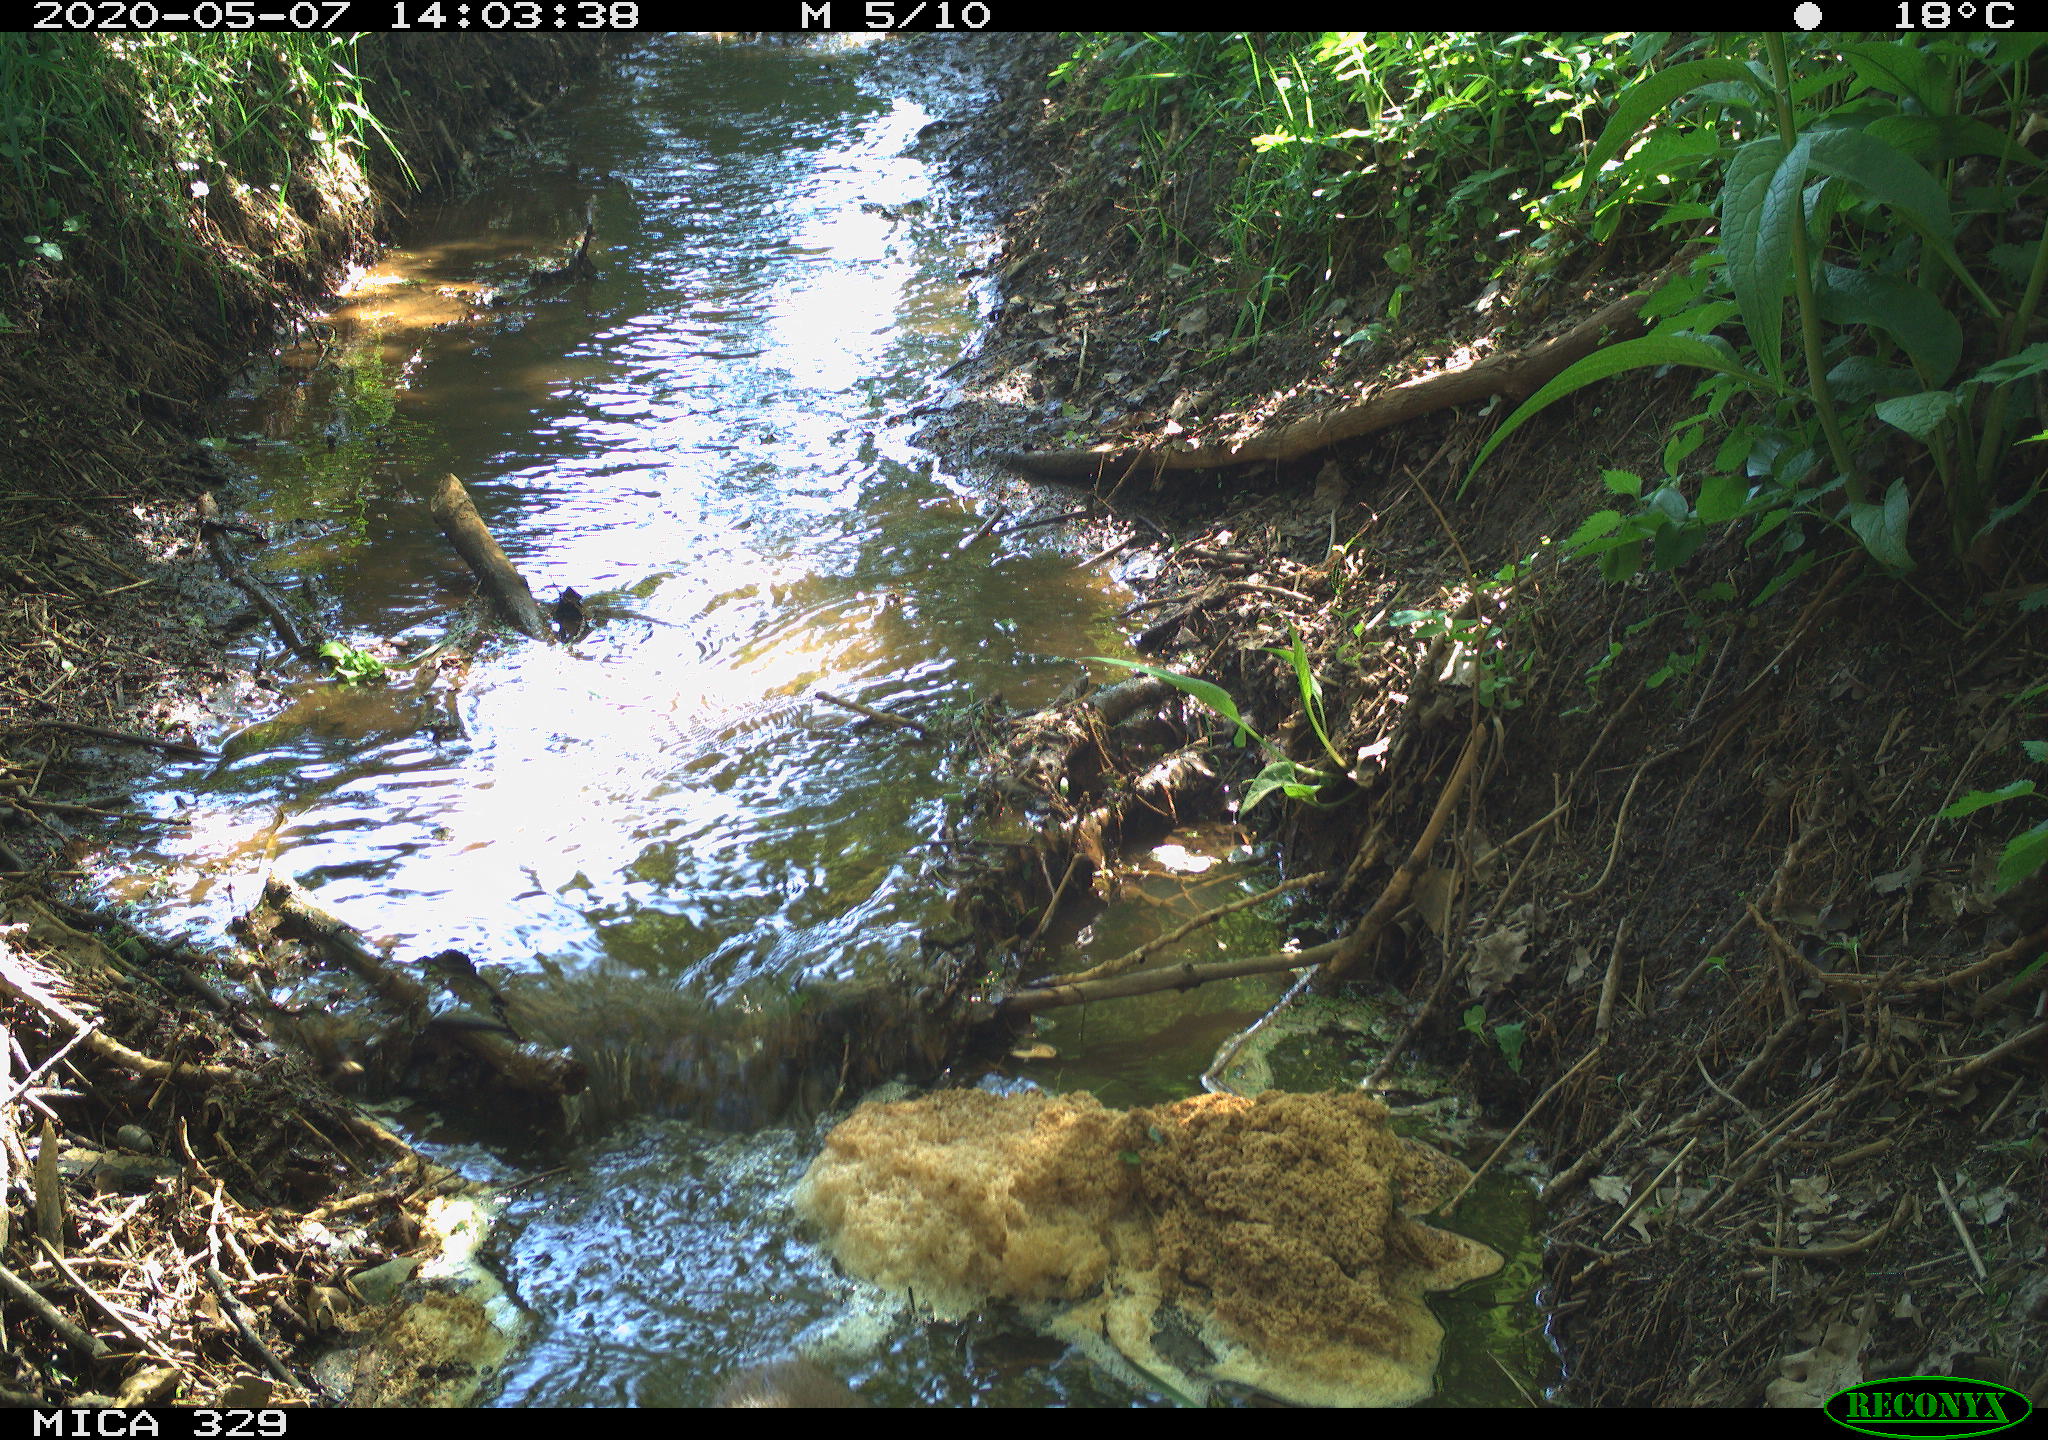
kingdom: Animalia
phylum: Chordata
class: Mammalia
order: Rodentia
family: Cricetidae
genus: Ondatra
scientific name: Ondatra zibethicus
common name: Muskrat
